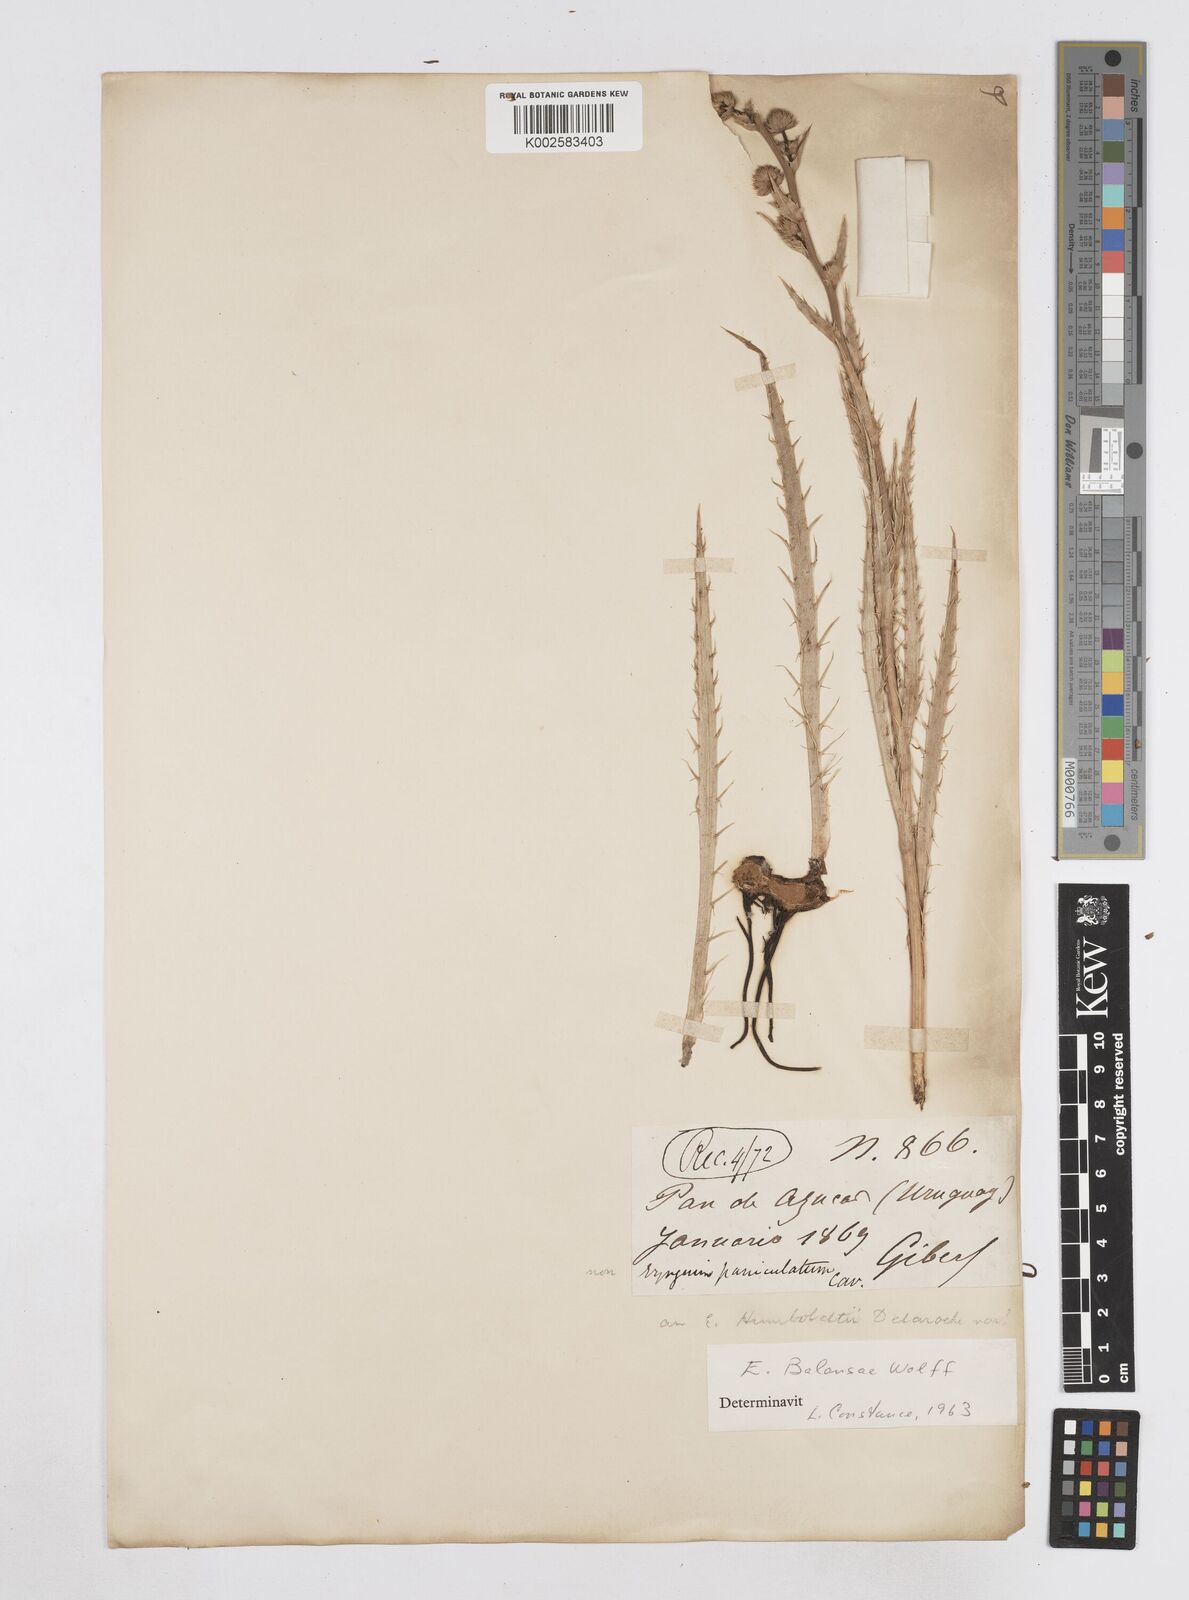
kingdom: Plantae
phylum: Tracheophyta
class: Magnoliopsida
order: Apiales
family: Apiaceae
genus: Eryngium
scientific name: Eryngium balansae
